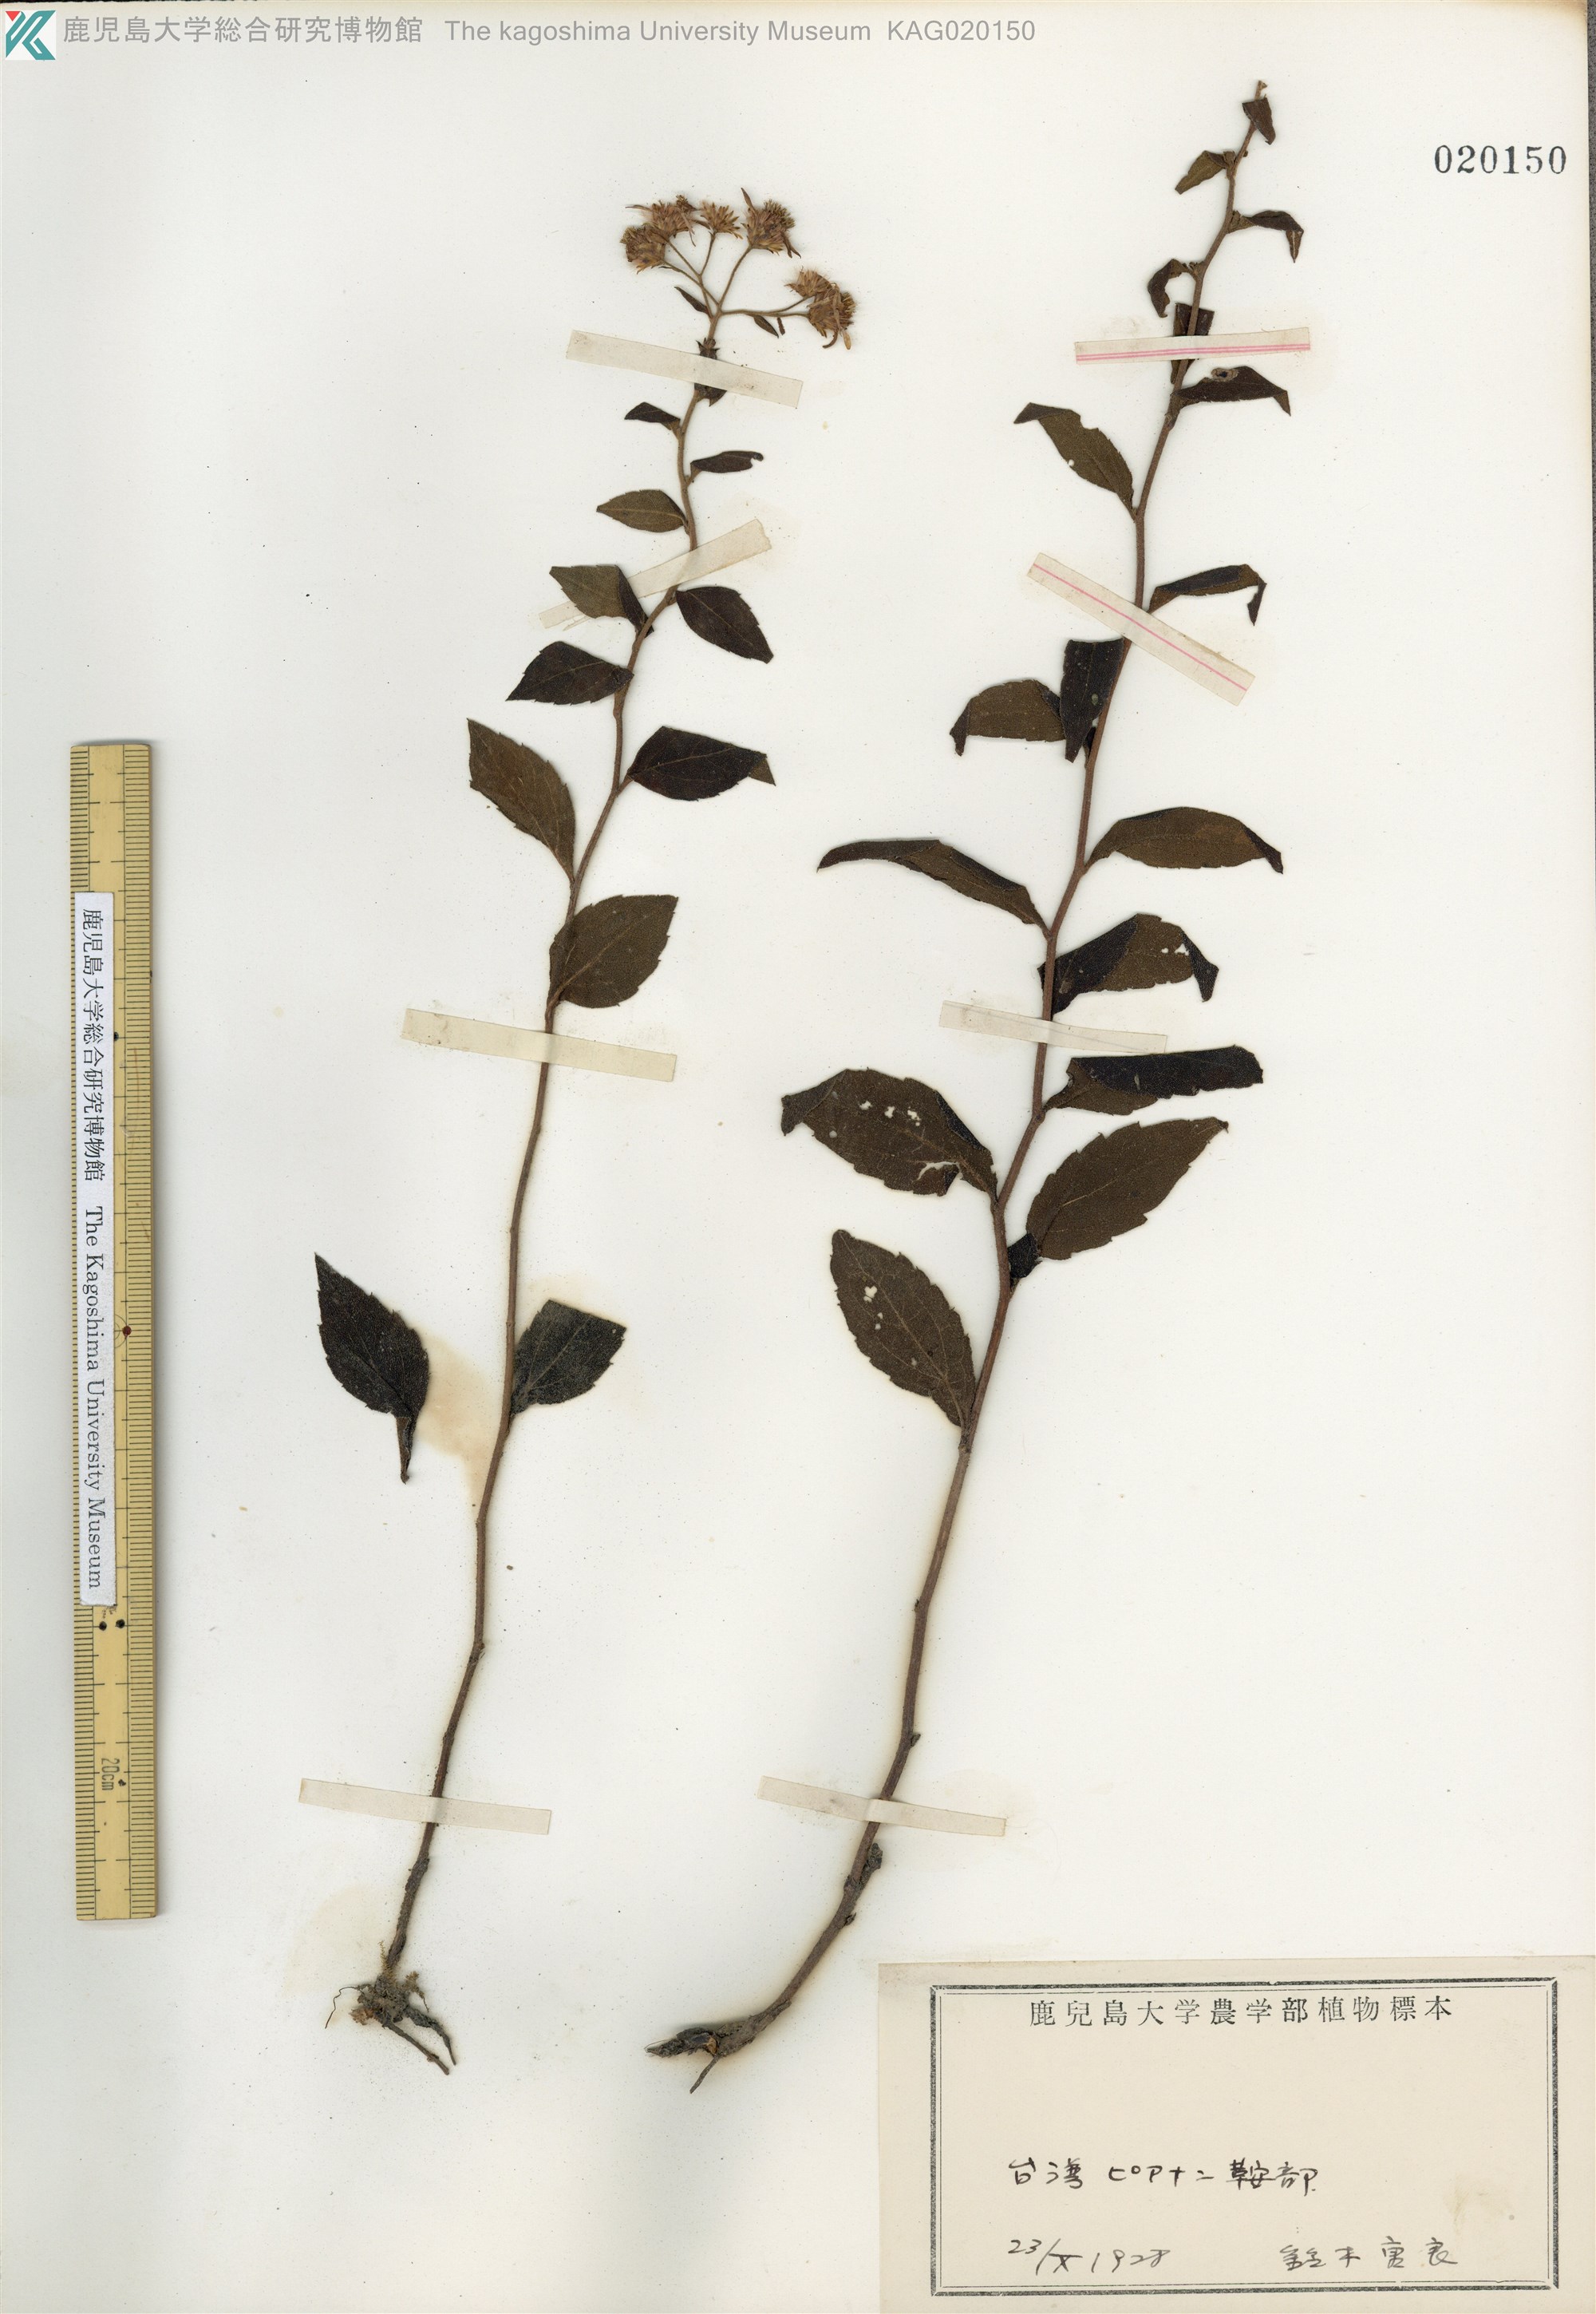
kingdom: Plantae
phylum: Tracheophyta
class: Magnoliopsida
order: Asterales
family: Asteraceae
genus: Aster
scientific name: Aster ageratoides
